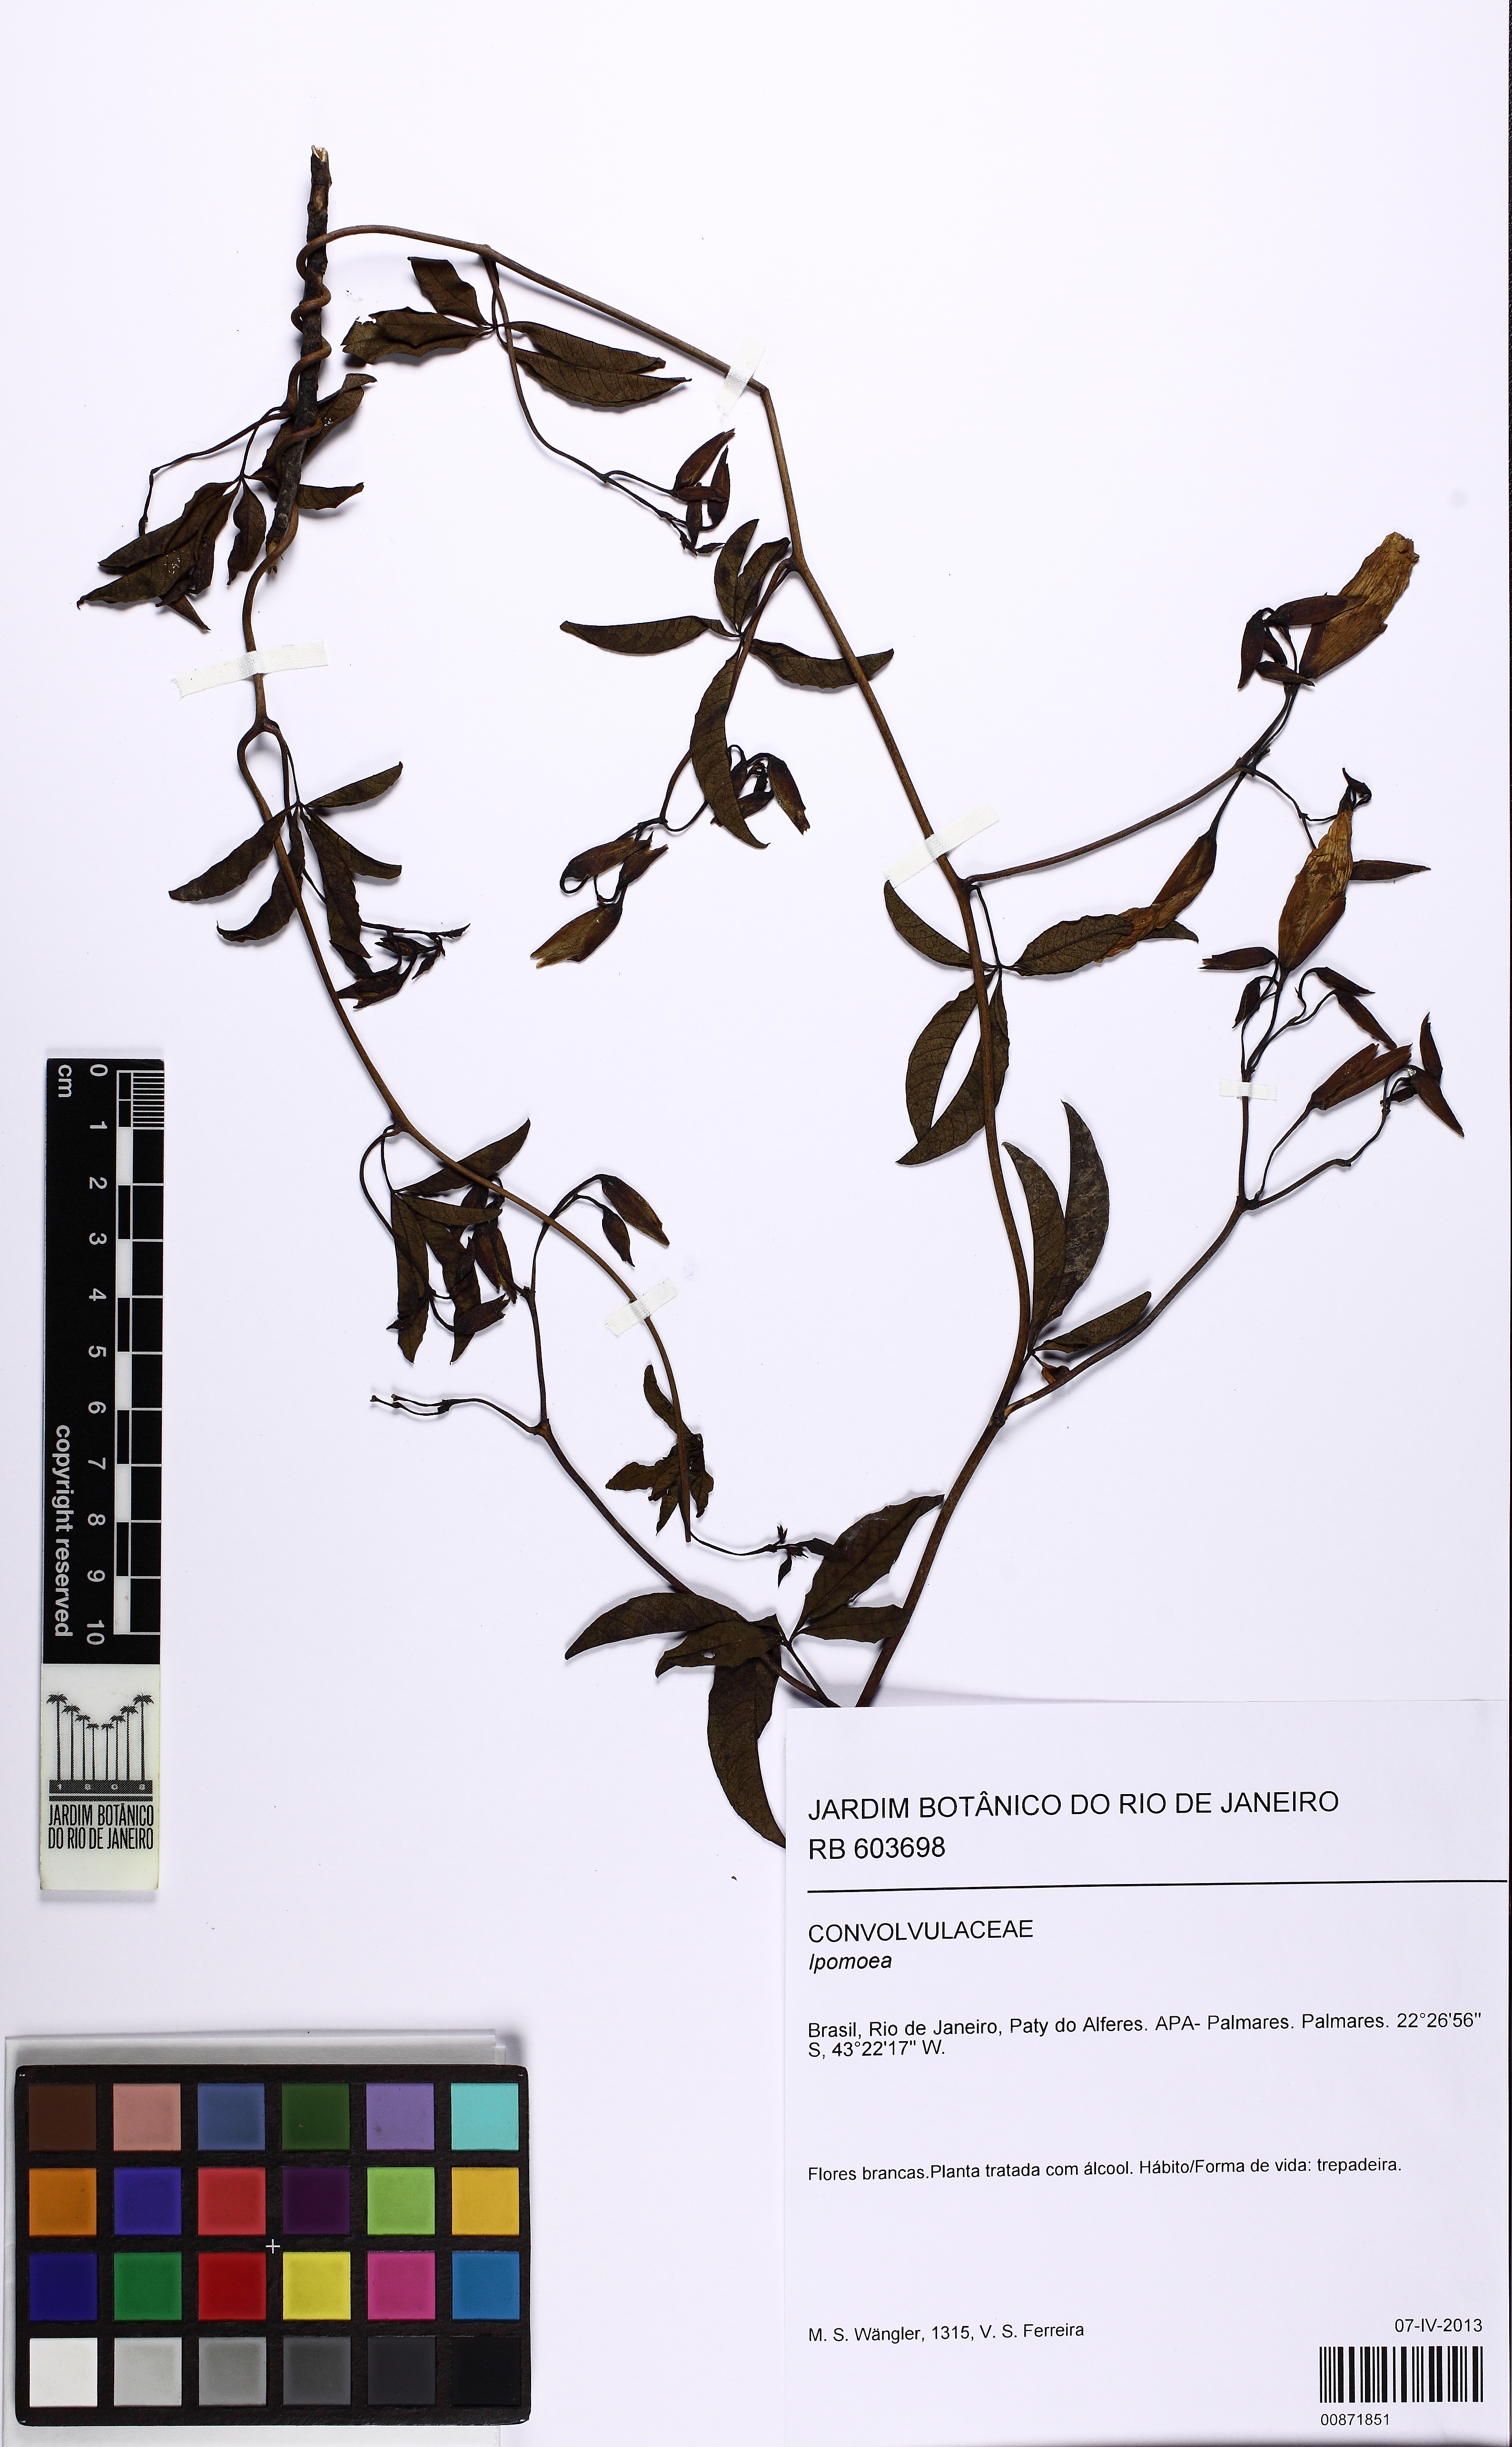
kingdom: Plantae
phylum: Tracheophyta
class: Magnoliopsida
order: Solanales
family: Convolvulaceae
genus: Distimake
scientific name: Distimake macrocalyx
